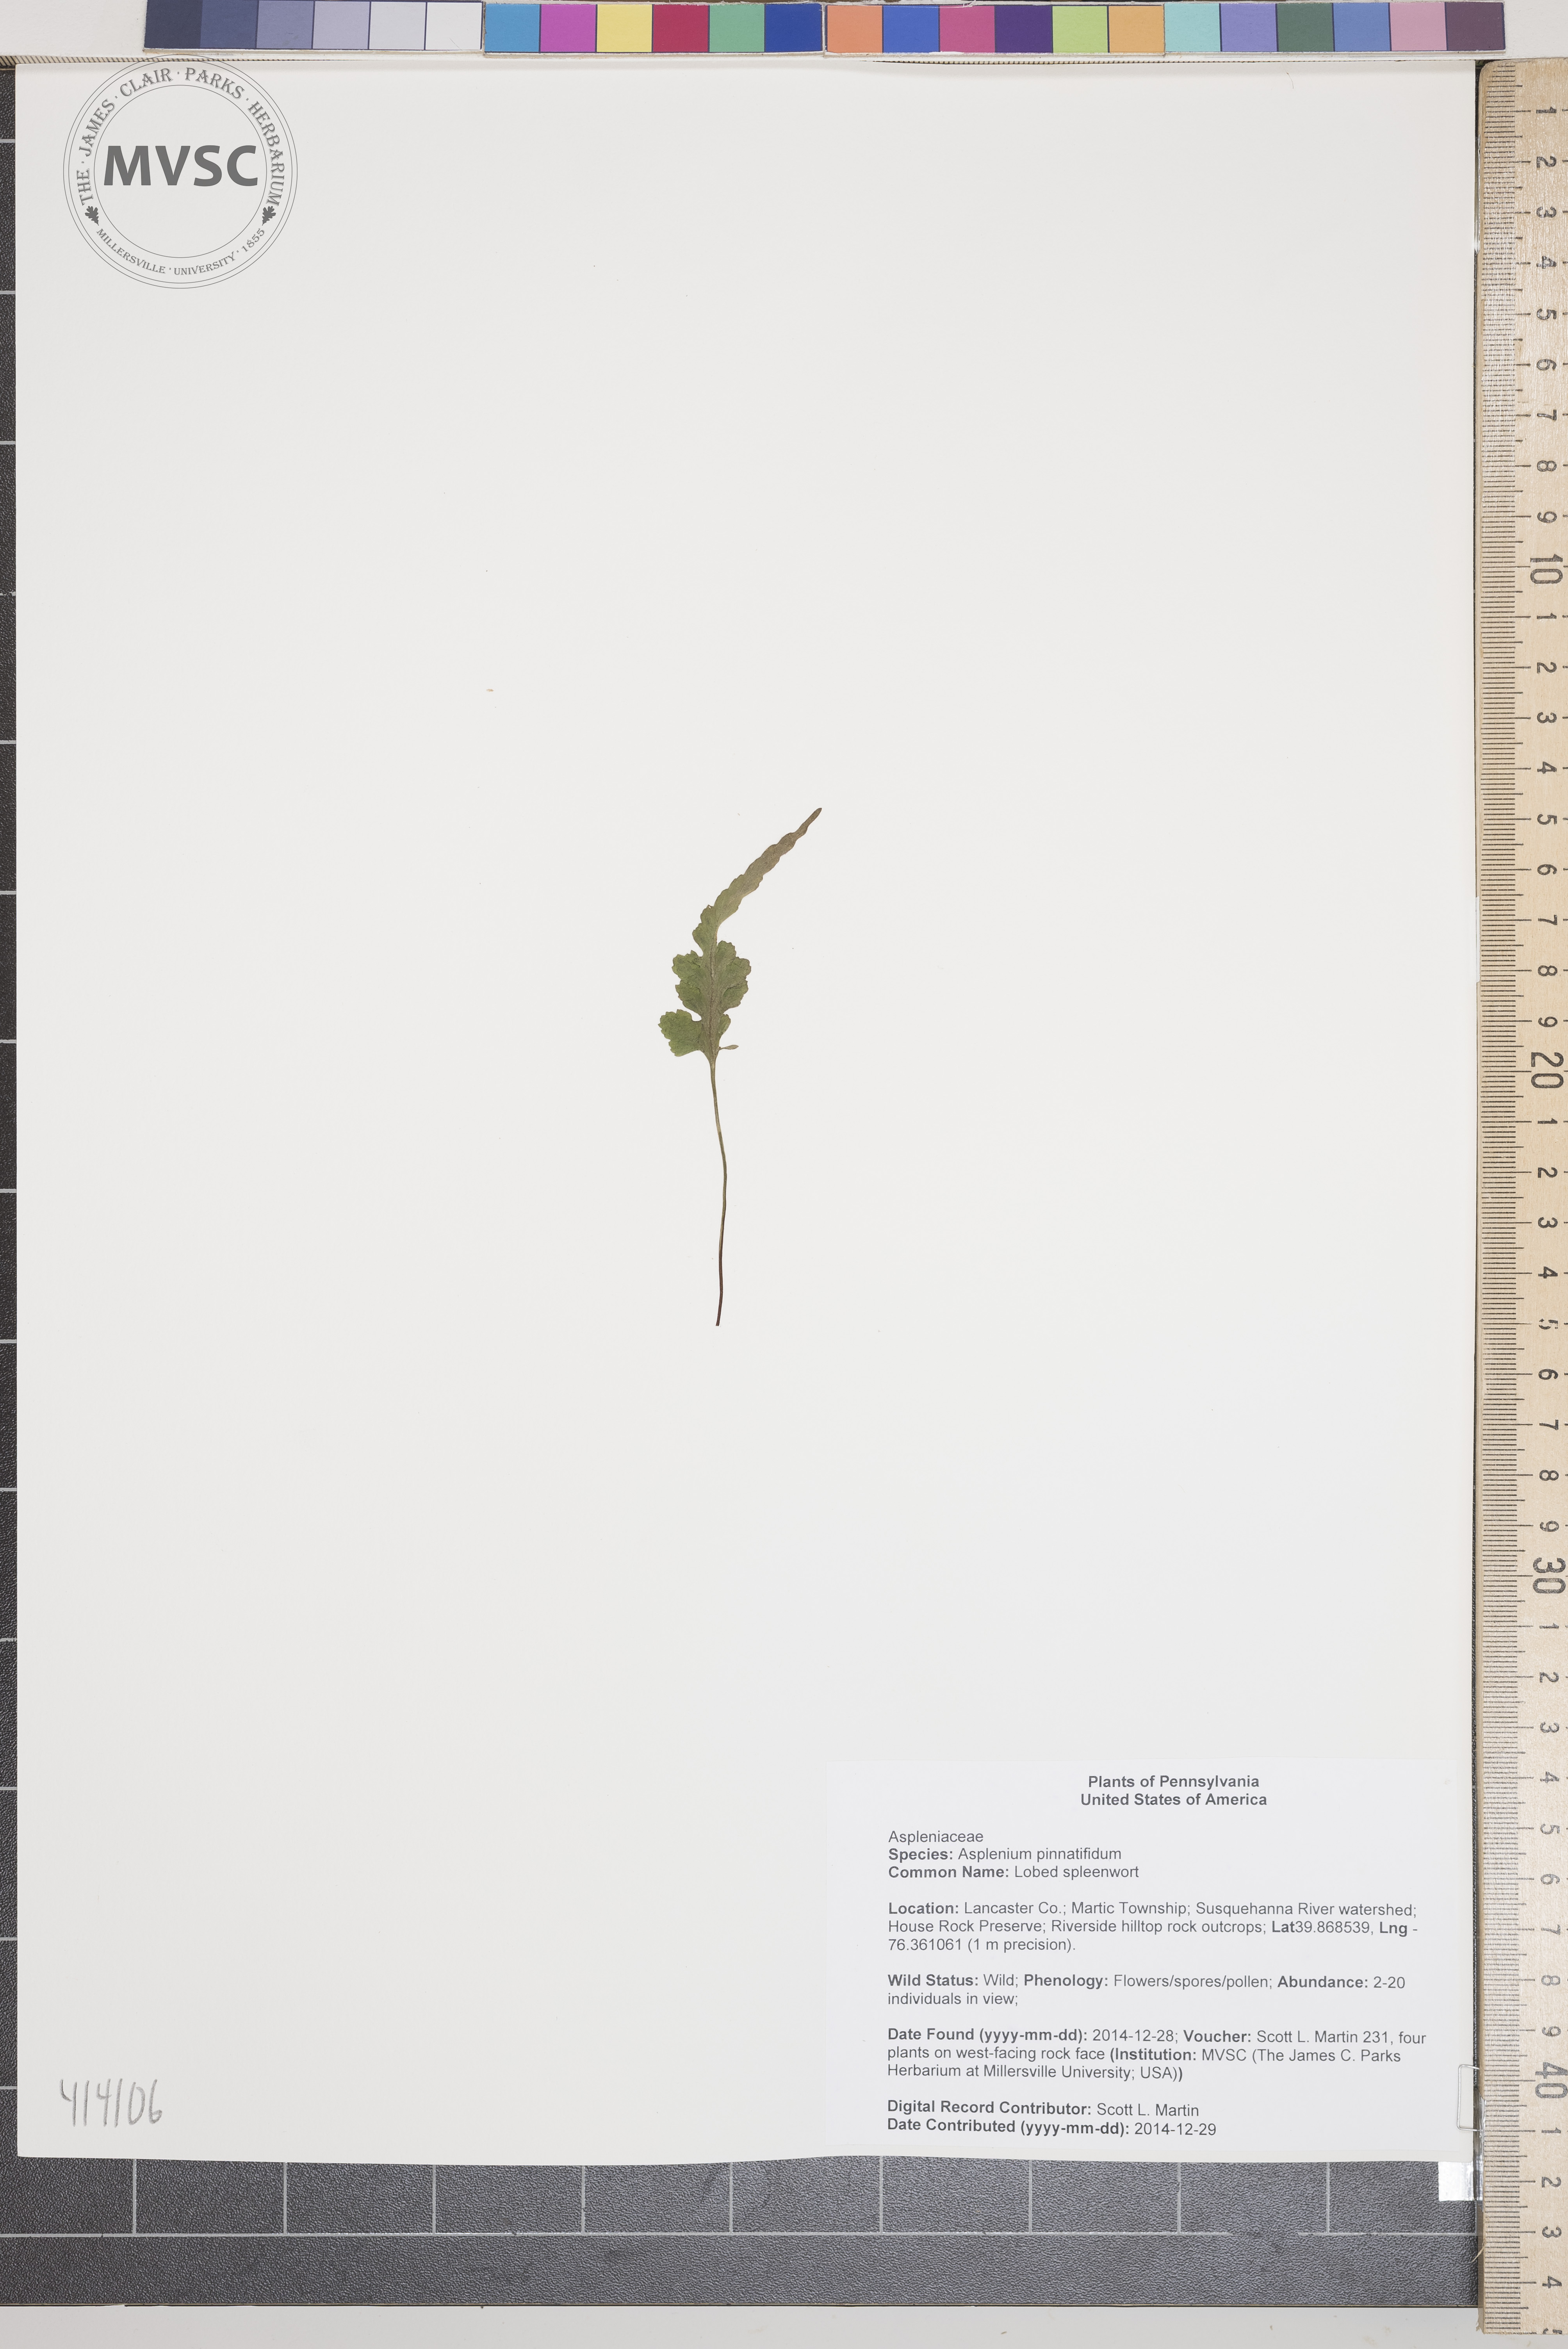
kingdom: Plantae
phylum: Tracheophyta
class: Polypodiopsida
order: Polypodiales
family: Aspleniaceae
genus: Asplenium
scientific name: Asplenium pinnatifidum
